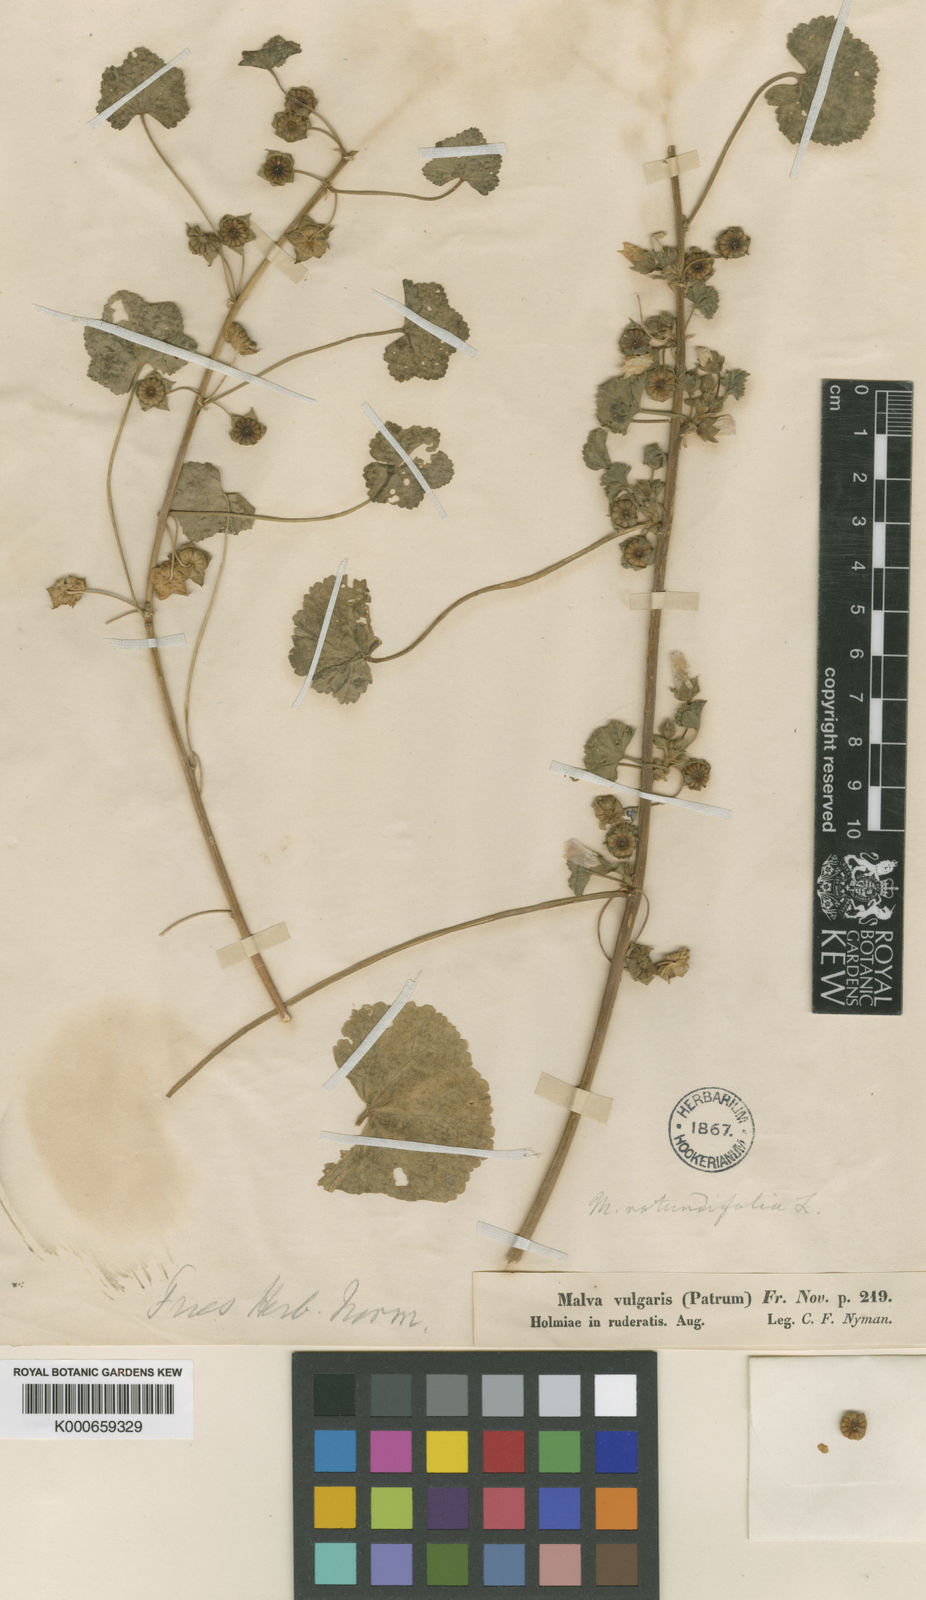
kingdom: Plantae
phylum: Tracheophyta
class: Magnoliopsida
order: Malvales
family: Malvaceae
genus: Malva
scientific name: Malva neglecta
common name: Common mallow
